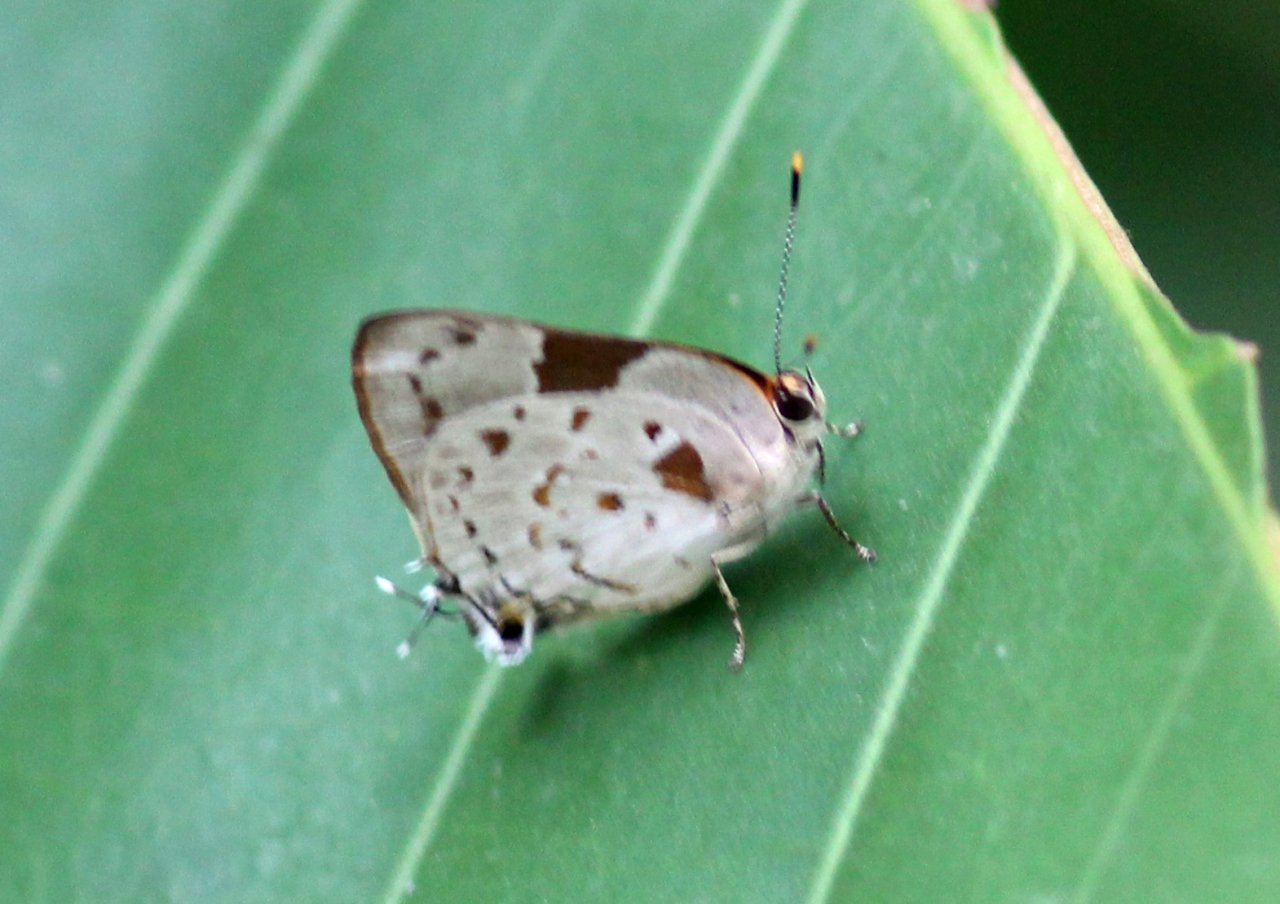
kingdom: Animalia
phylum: Arthropoda
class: Insecta
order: Lepidoptera
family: Lycaenidae
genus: Thecla
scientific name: Thecla cydrara
